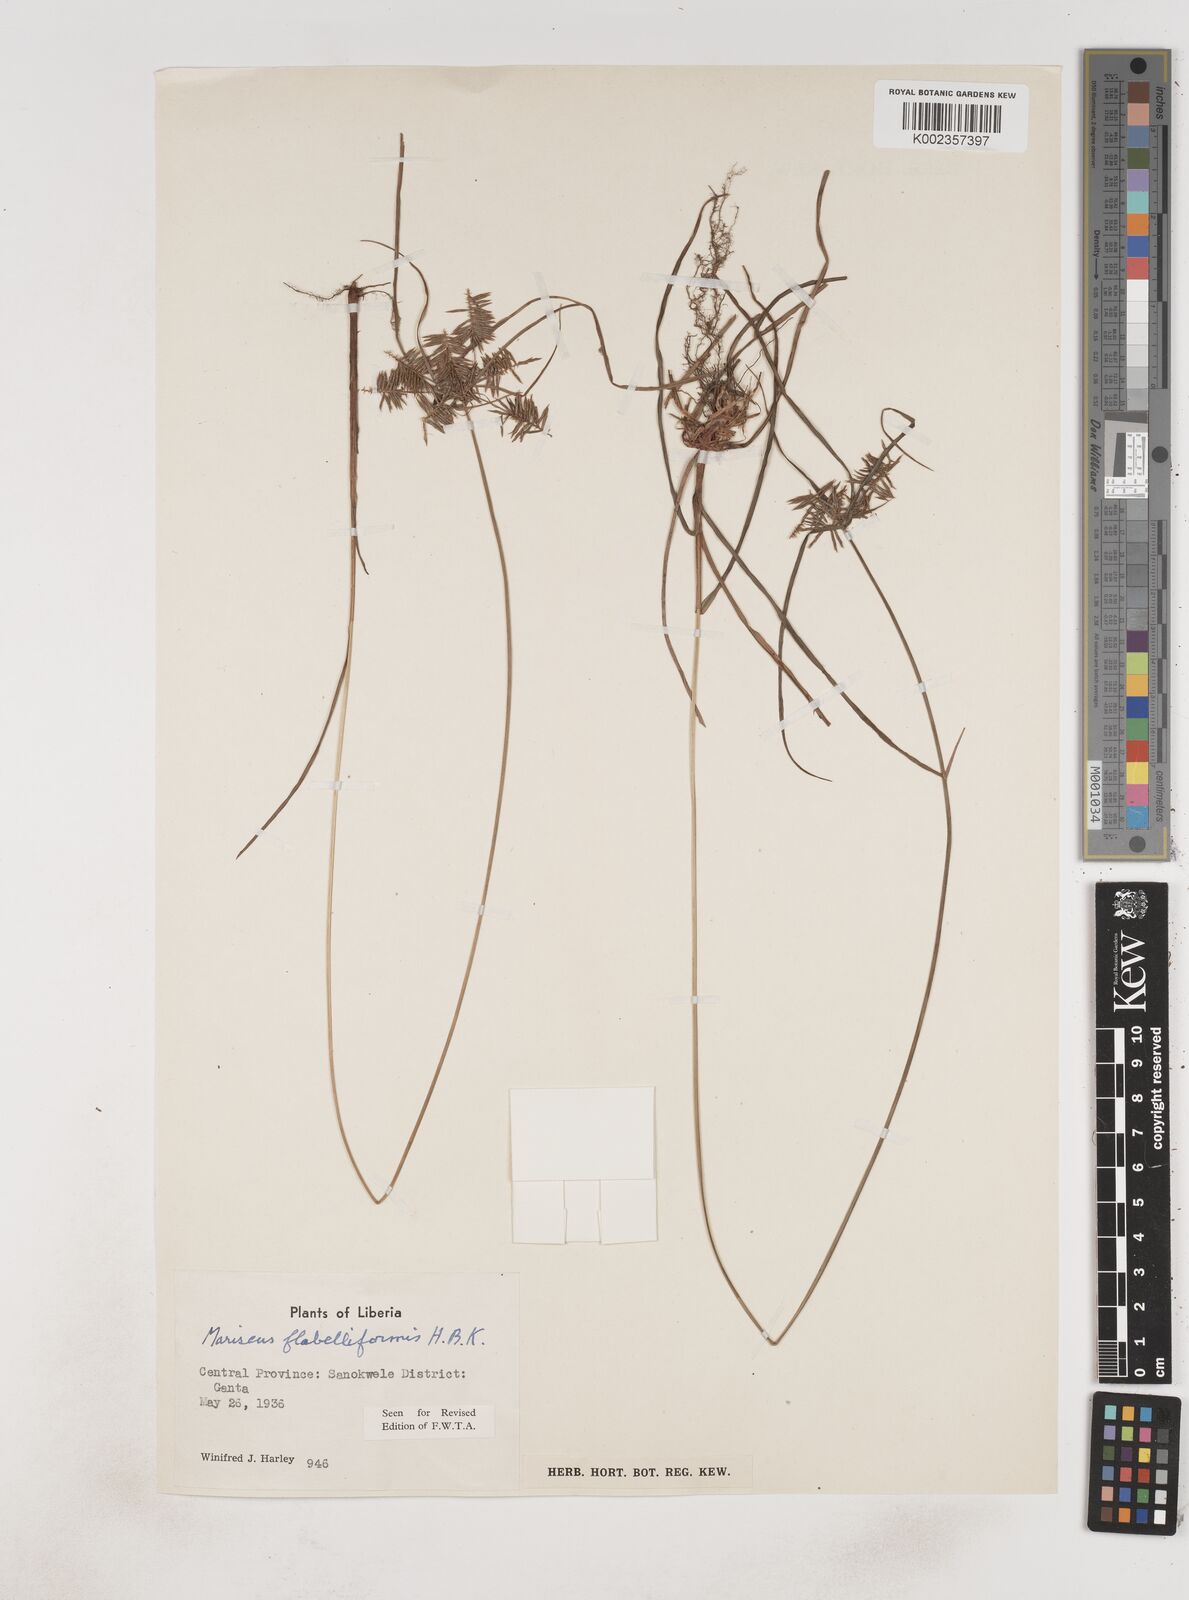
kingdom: Plantae
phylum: Tracheophyta
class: Liliopsida
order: Poales
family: Cyperaceae
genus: Cyperus
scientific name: Cyperus tenuis
